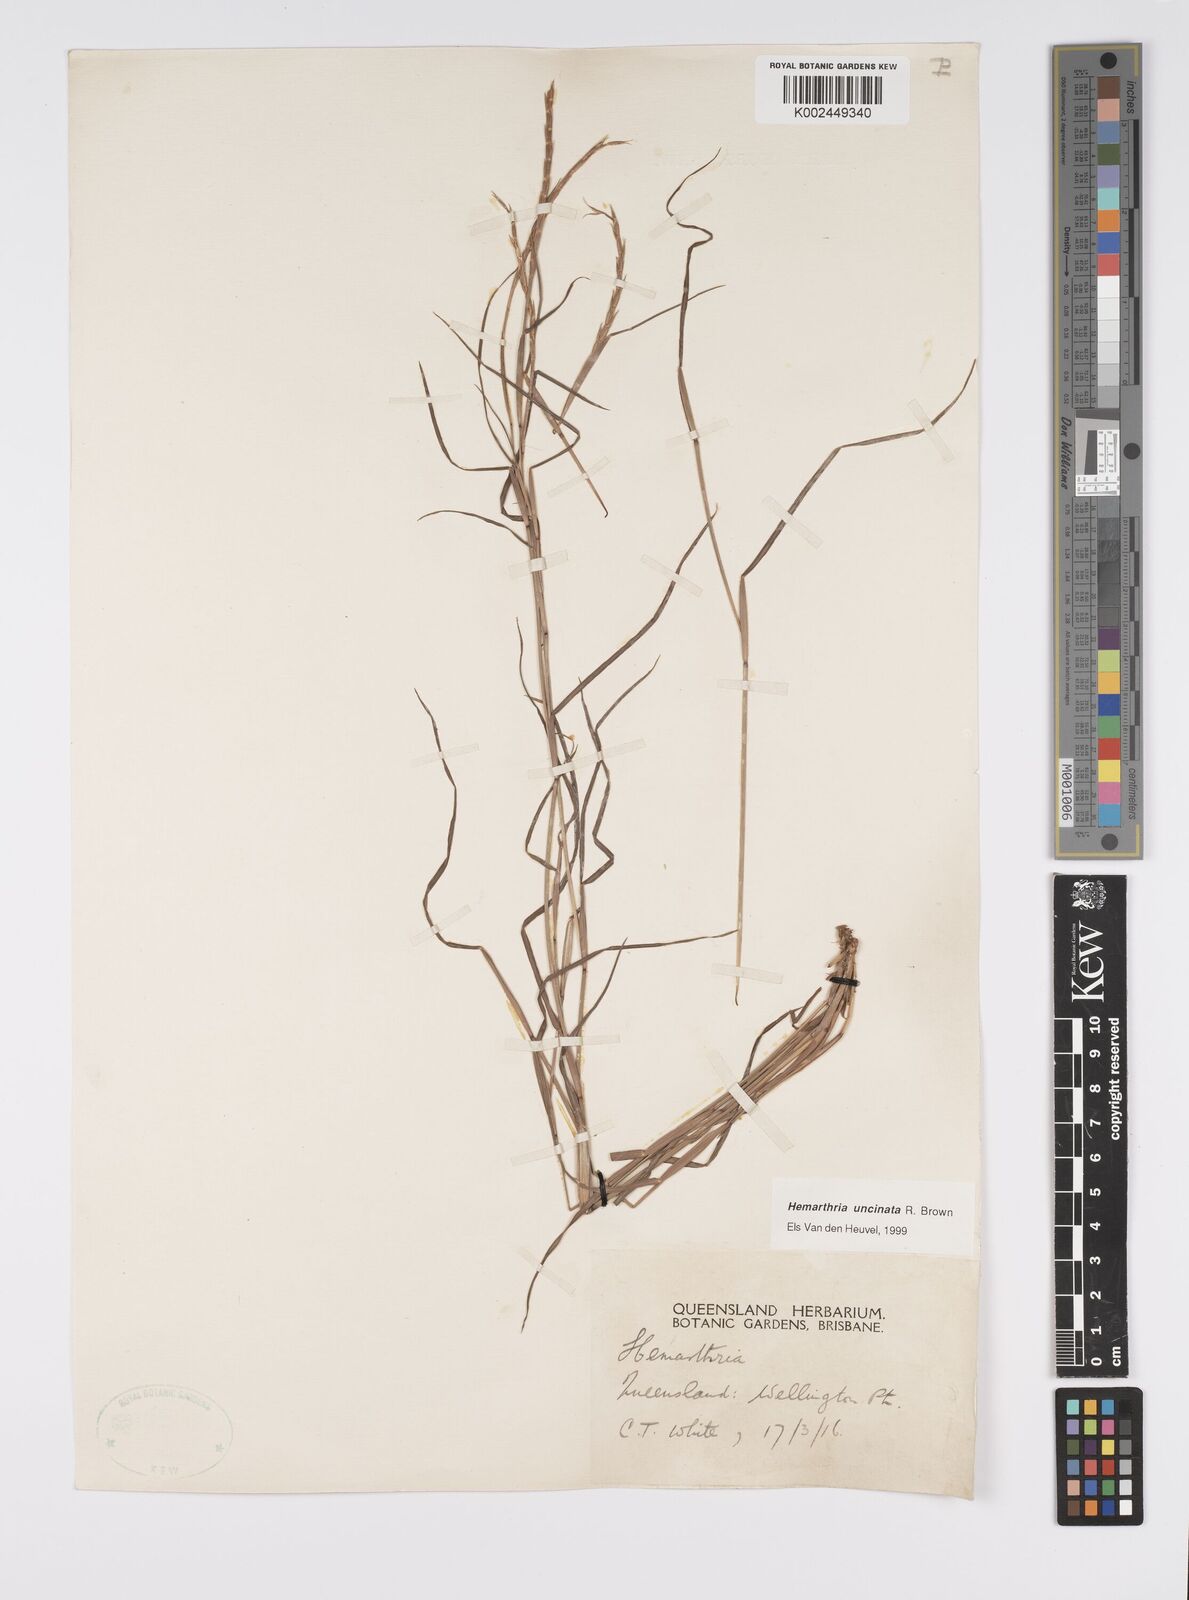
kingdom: Plantae
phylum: Tracheophyta
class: Liliopsida
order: Poales
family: Poaceae
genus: Hemarthria
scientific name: Hemarthria uncinata
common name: Matgrass
